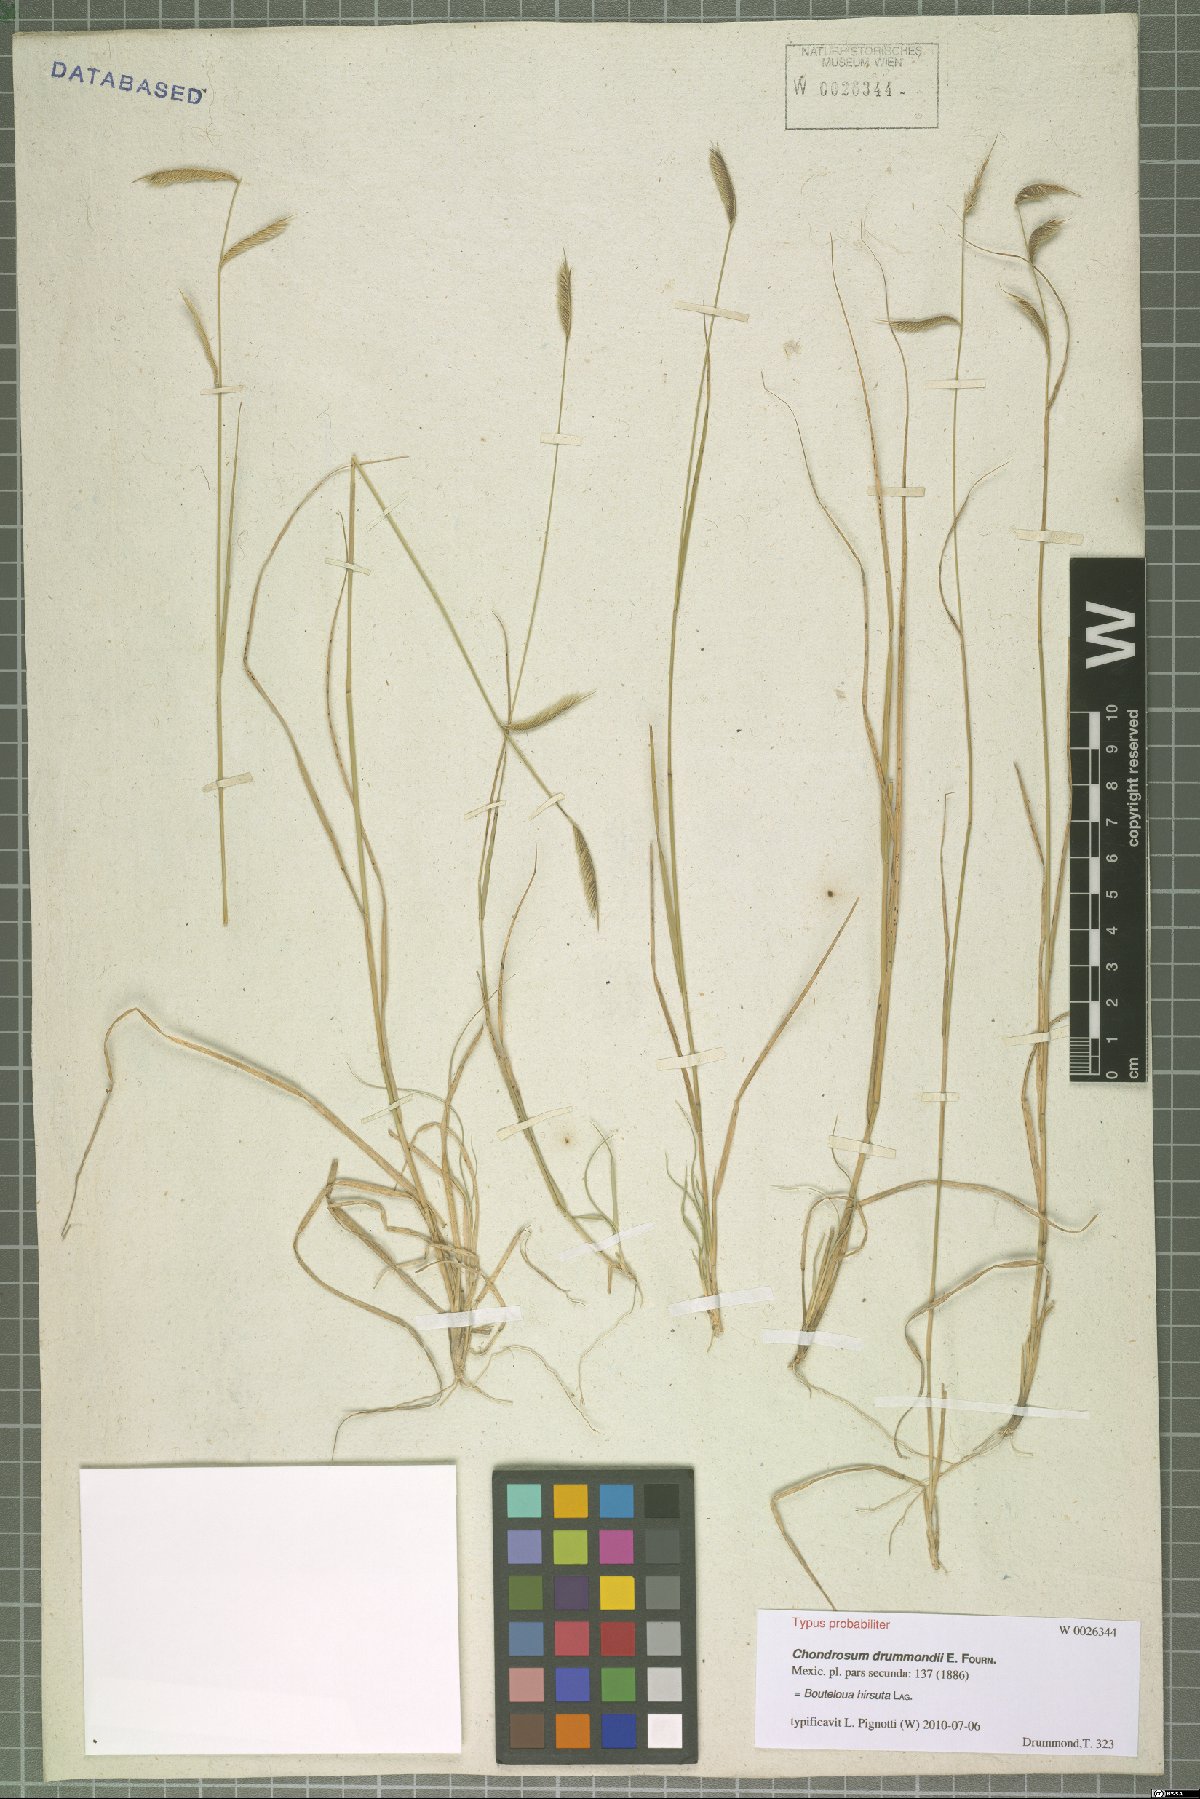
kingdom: Plantae
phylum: Tracheophyta
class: Liliopsida
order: Poales
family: Poaceae
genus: Bouteloua
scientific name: Bouteloua hirsuta
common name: Hairy grama
